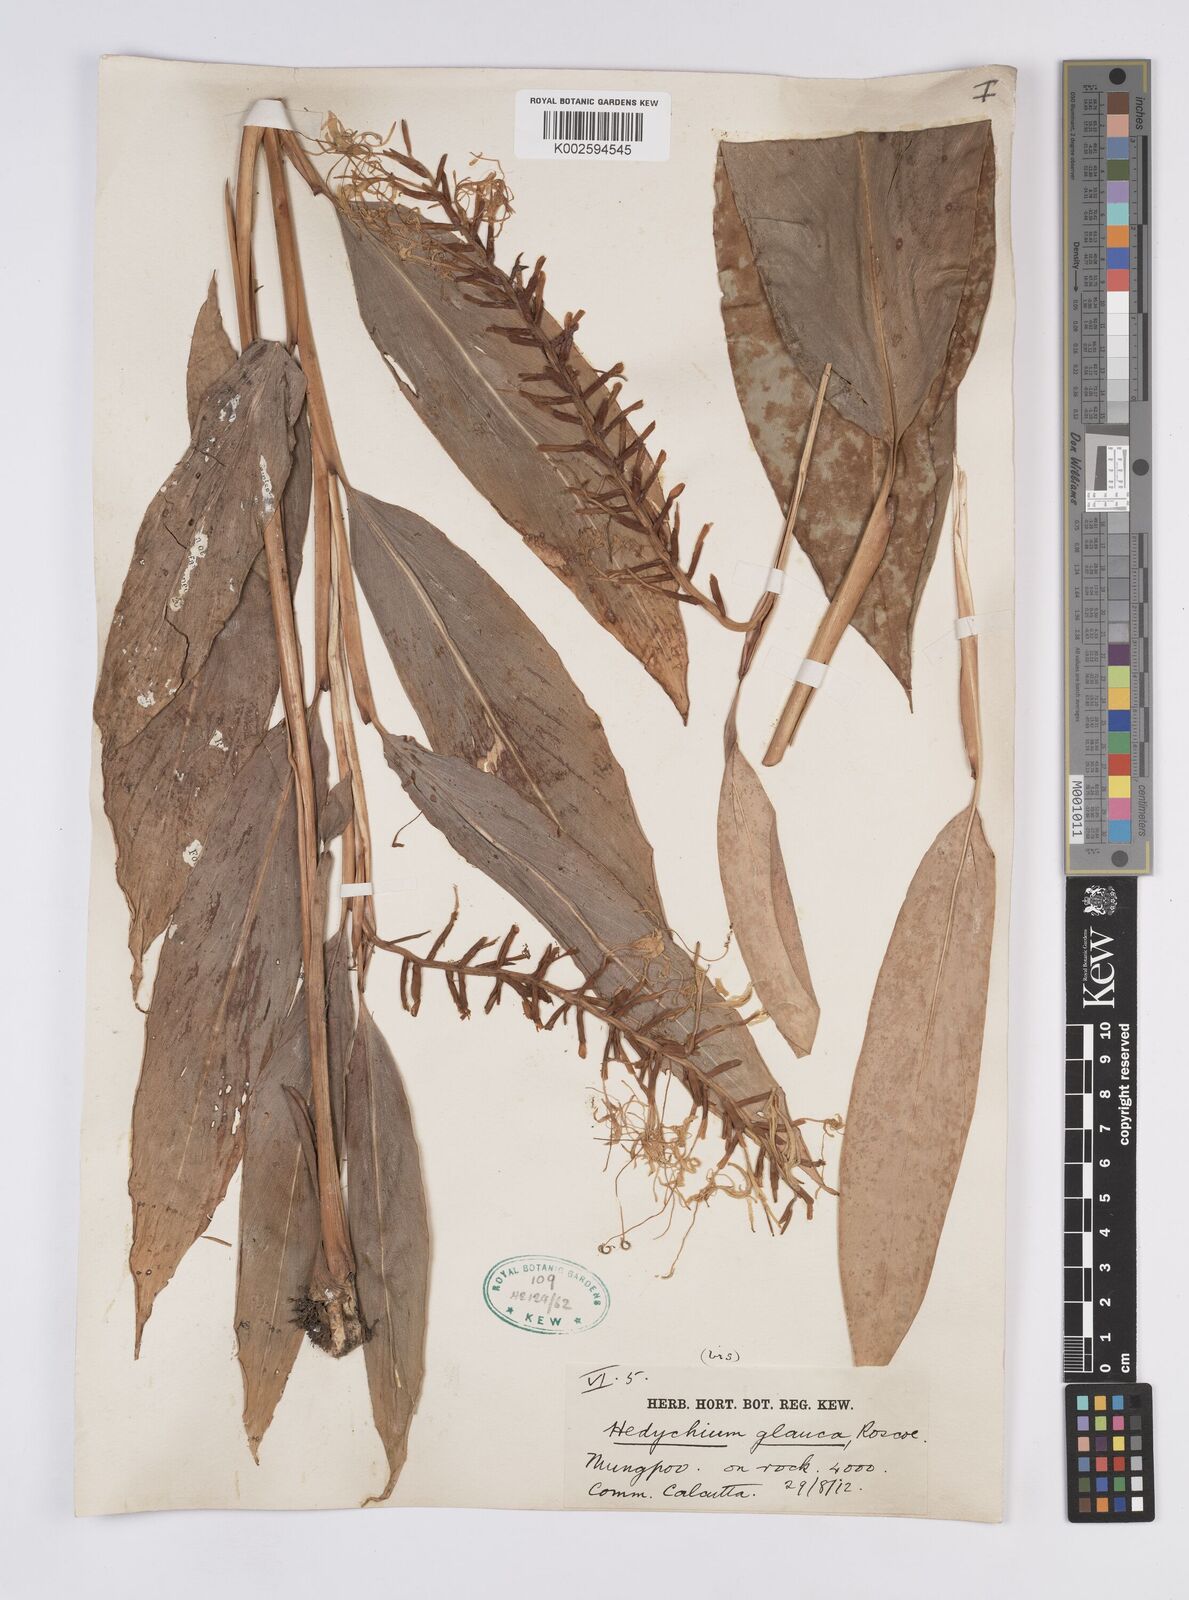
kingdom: Plantae
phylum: Tracheophyta
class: Liliopsida
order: Zingiberales
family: Zingiberaceae
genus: Hedychium
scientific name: Hedychium glaucum
